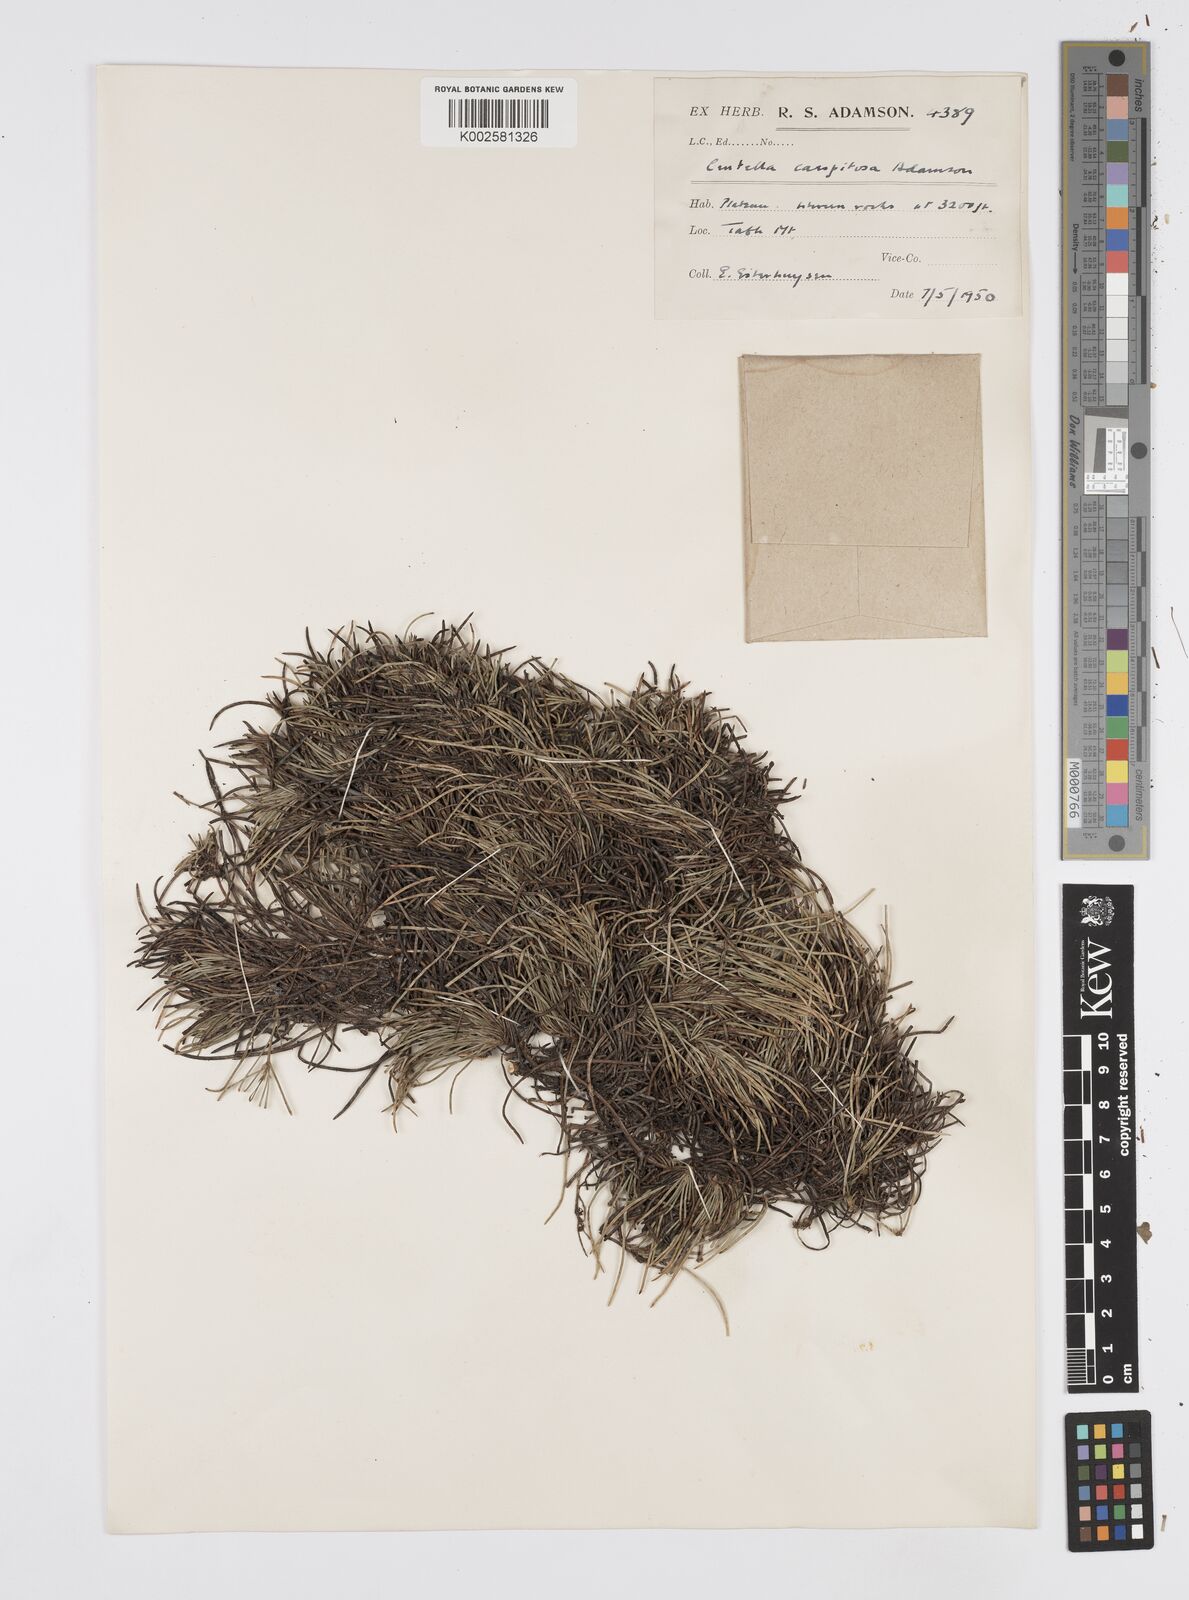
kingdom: Plantae
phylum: Tracheophyta
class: Magnoliopsida
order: Apiales
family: Apiaceae
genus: Centella
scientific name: Centella caespitosa
